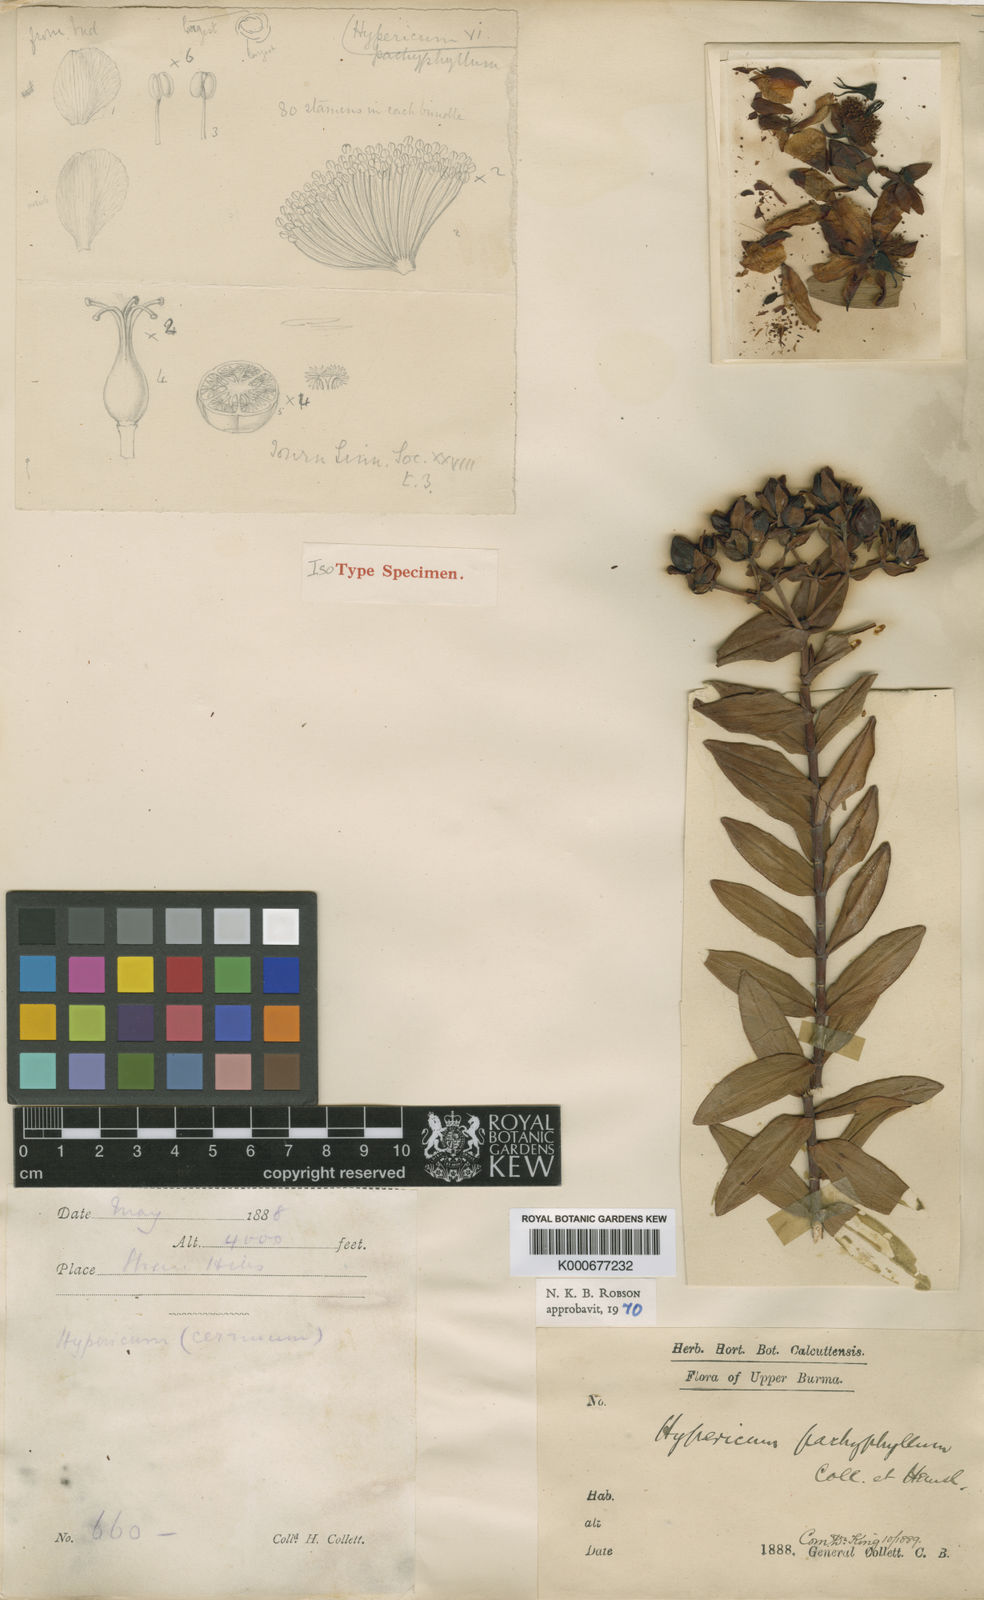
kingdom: Plantae
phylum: Tracheophyta
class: Magnoliopsida
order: Malpighiales
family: Hypericaceae
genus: Hypericum
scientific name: Hypericum pachyphyllum
